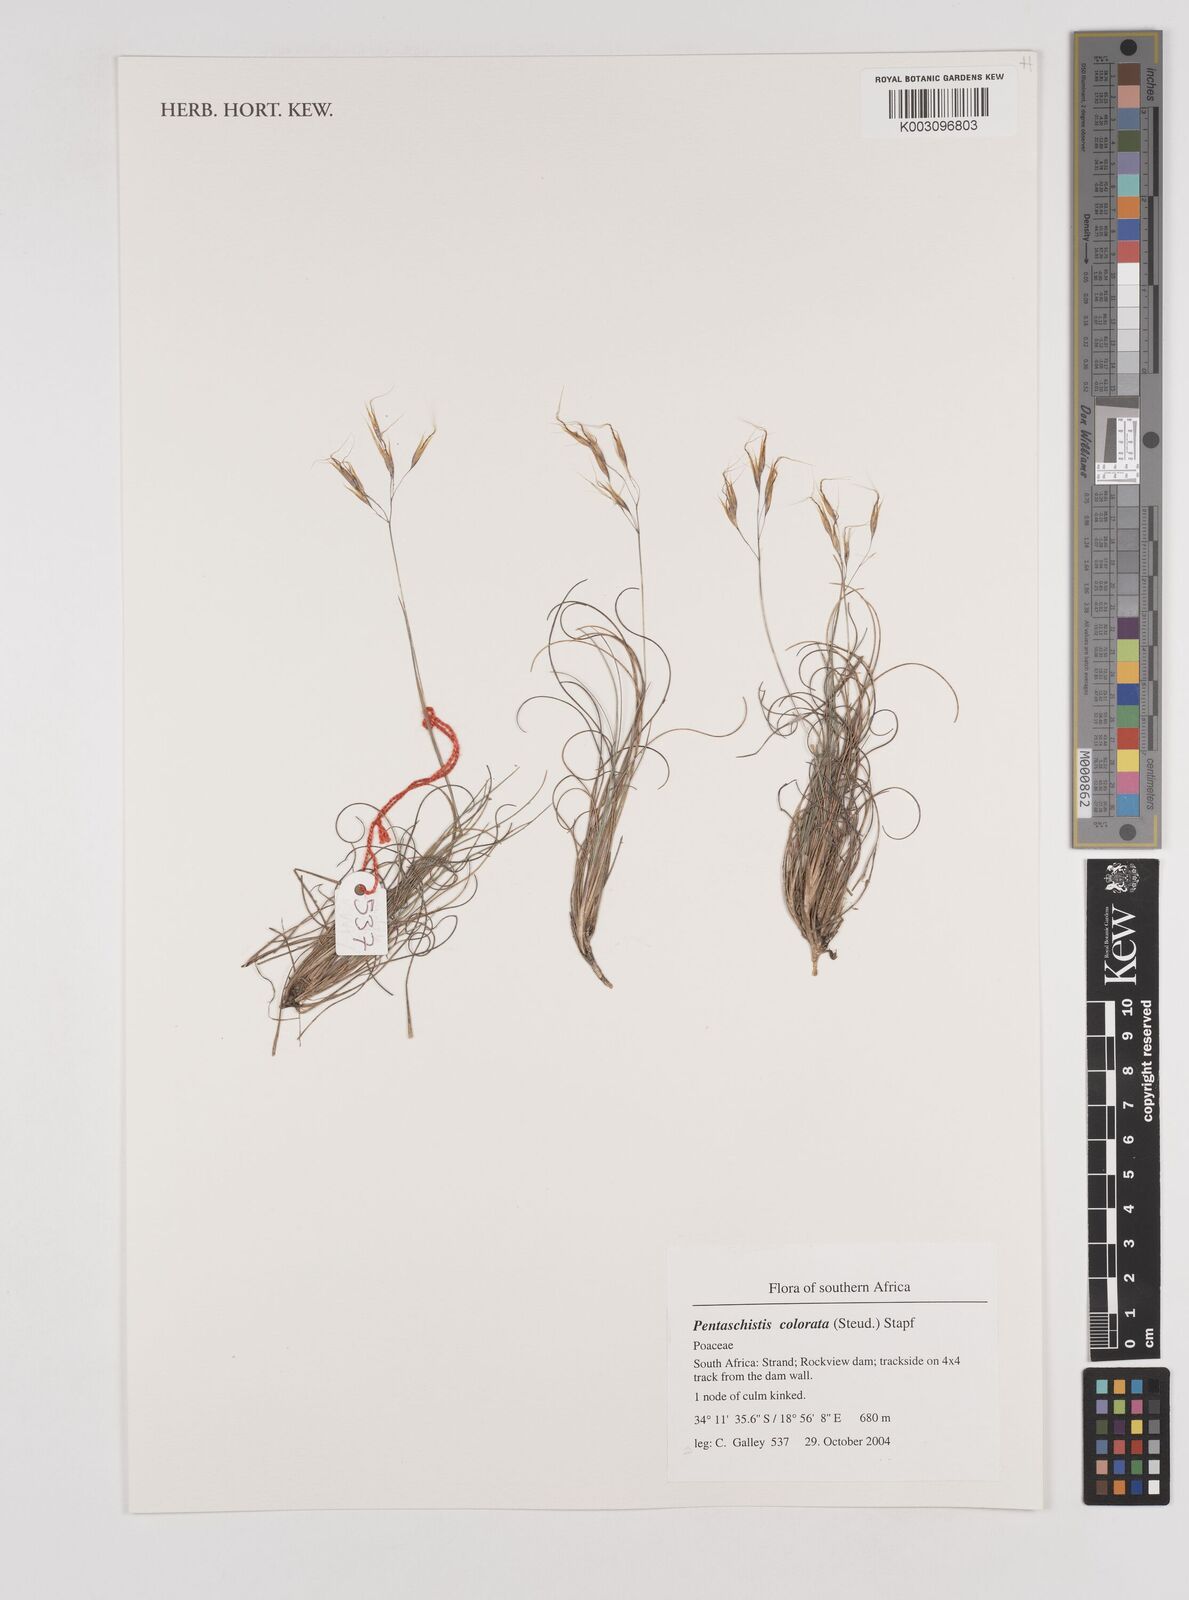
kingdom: Plantae
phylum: Tracheophyta
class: Liliopsida
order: Poales
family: Poaceae
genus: Pentameris
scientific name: Pentameris colorata
